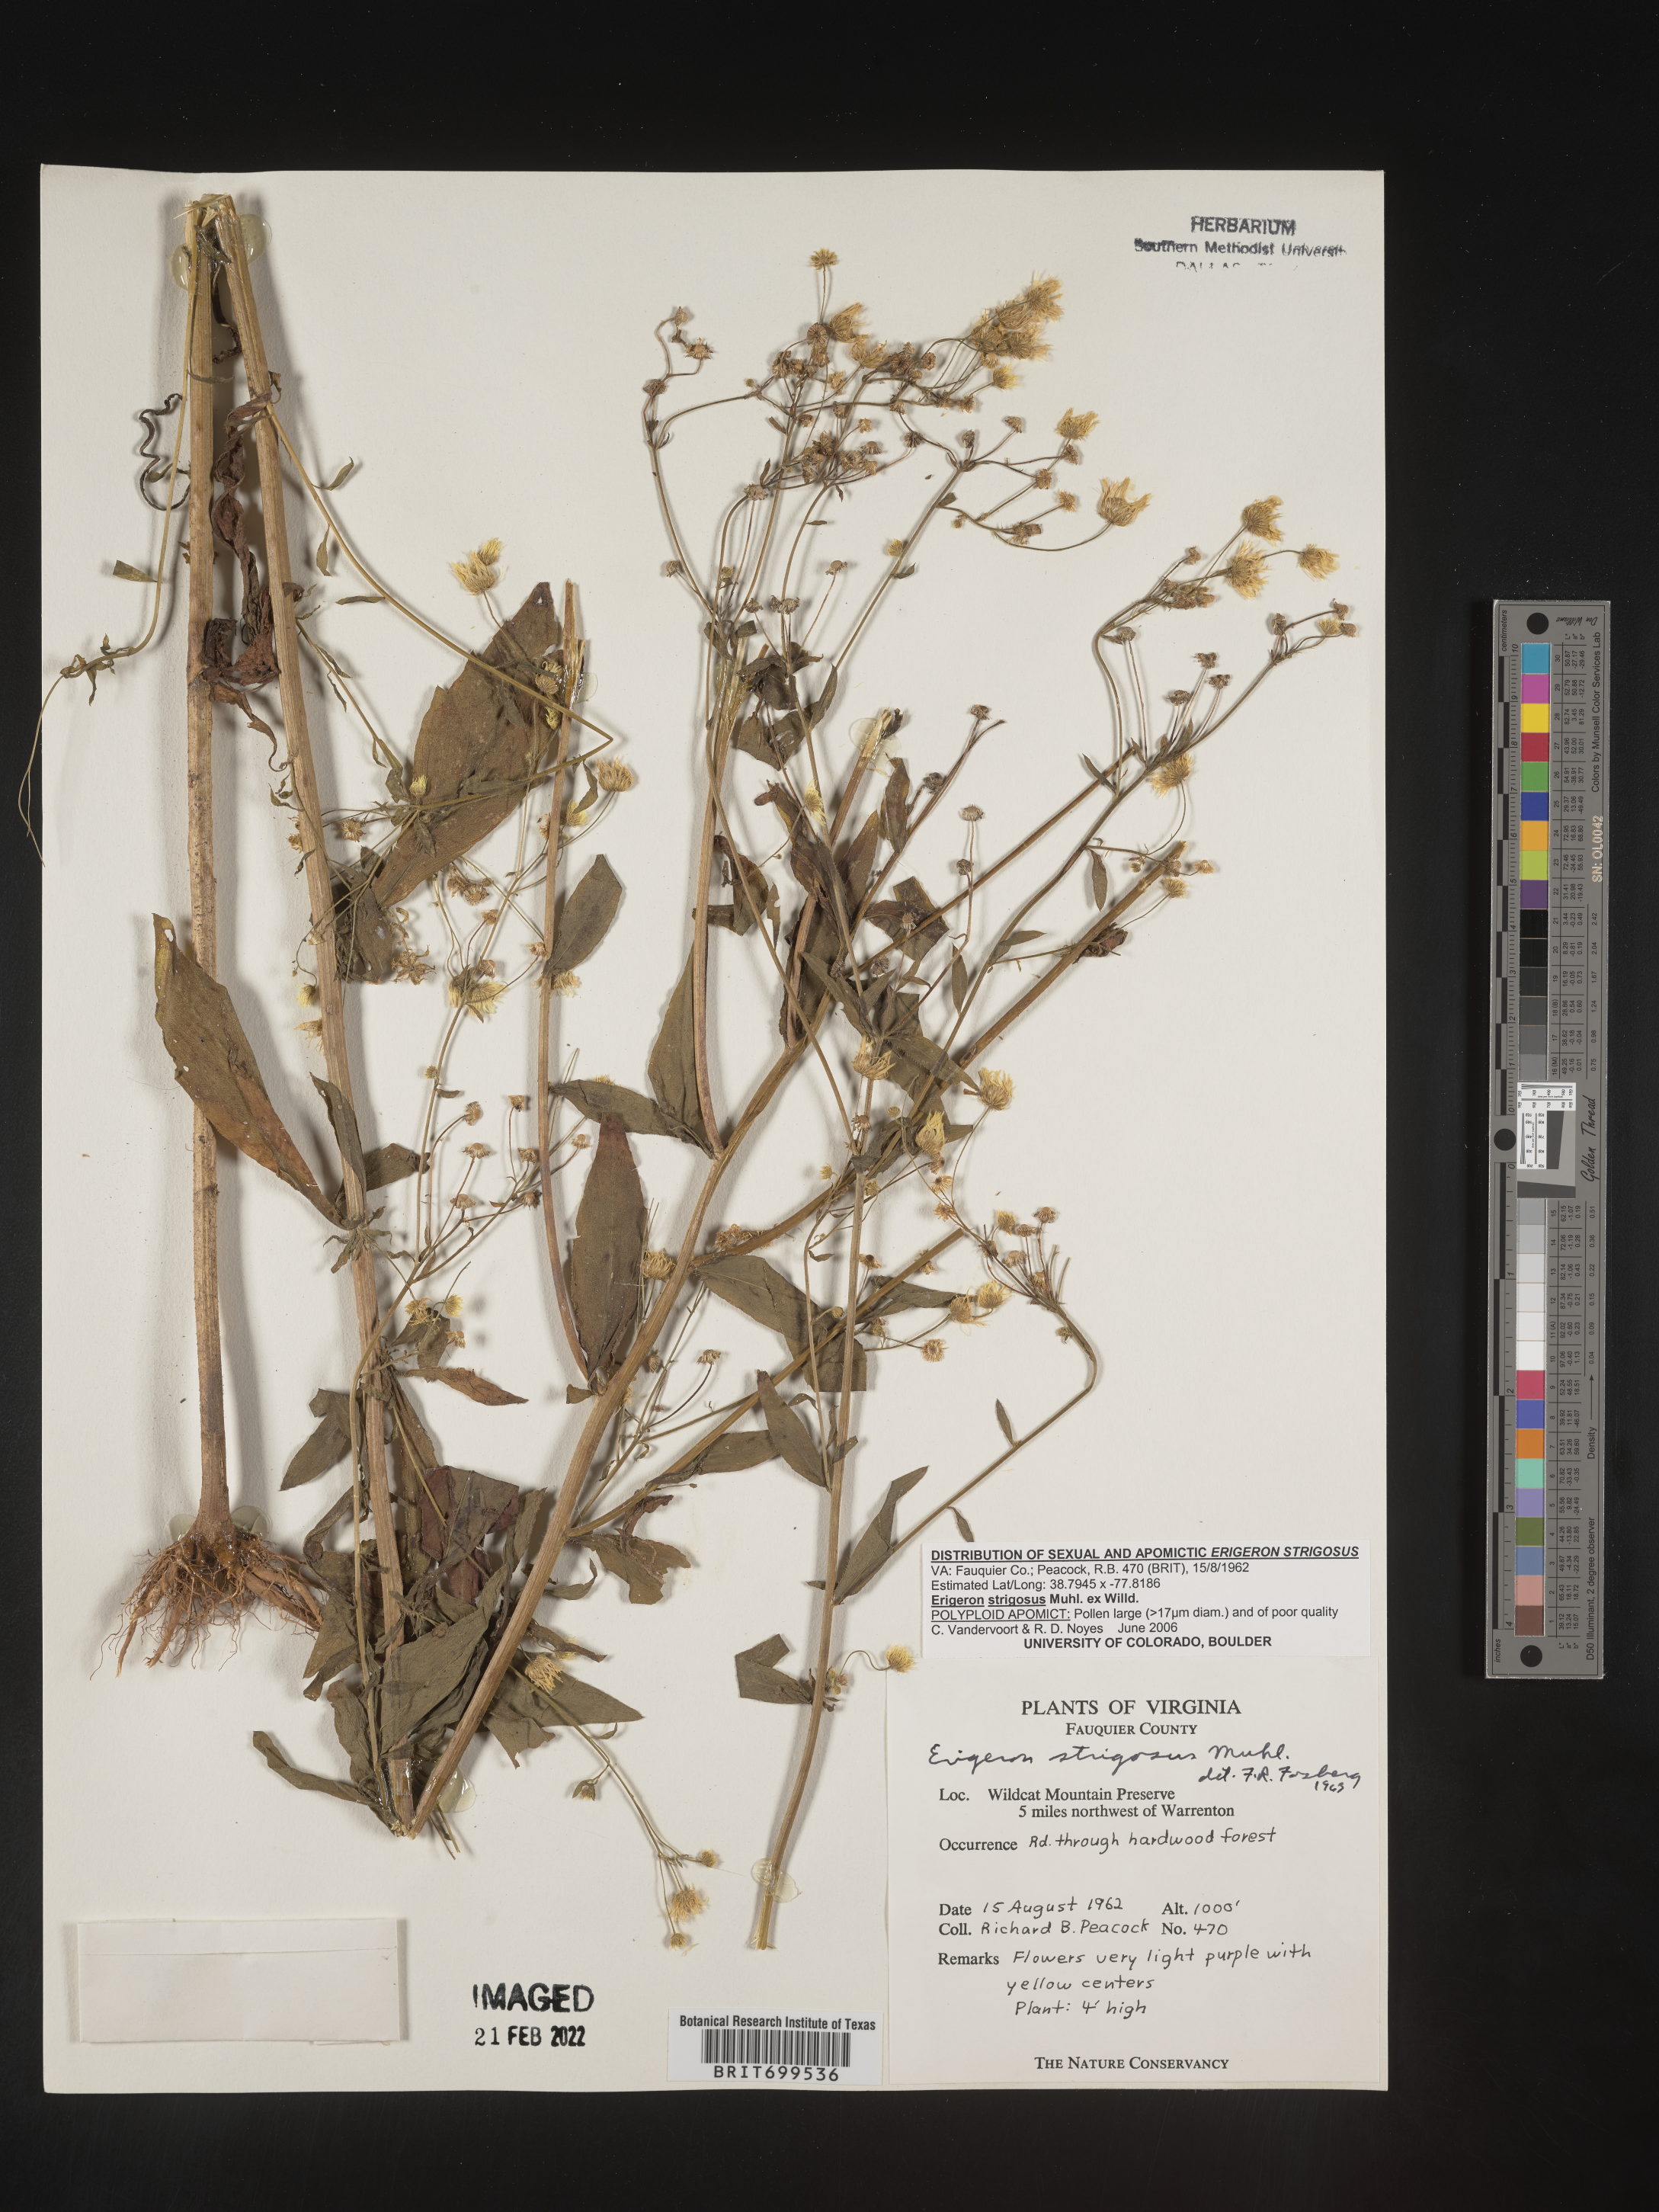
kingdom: Plantae
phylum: Tracheophyta
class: Magnoliopsida
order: Asterales
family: Asteraceae
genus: Erigeron
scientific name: Erigeron strigosus
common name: Common eastern fleabane
